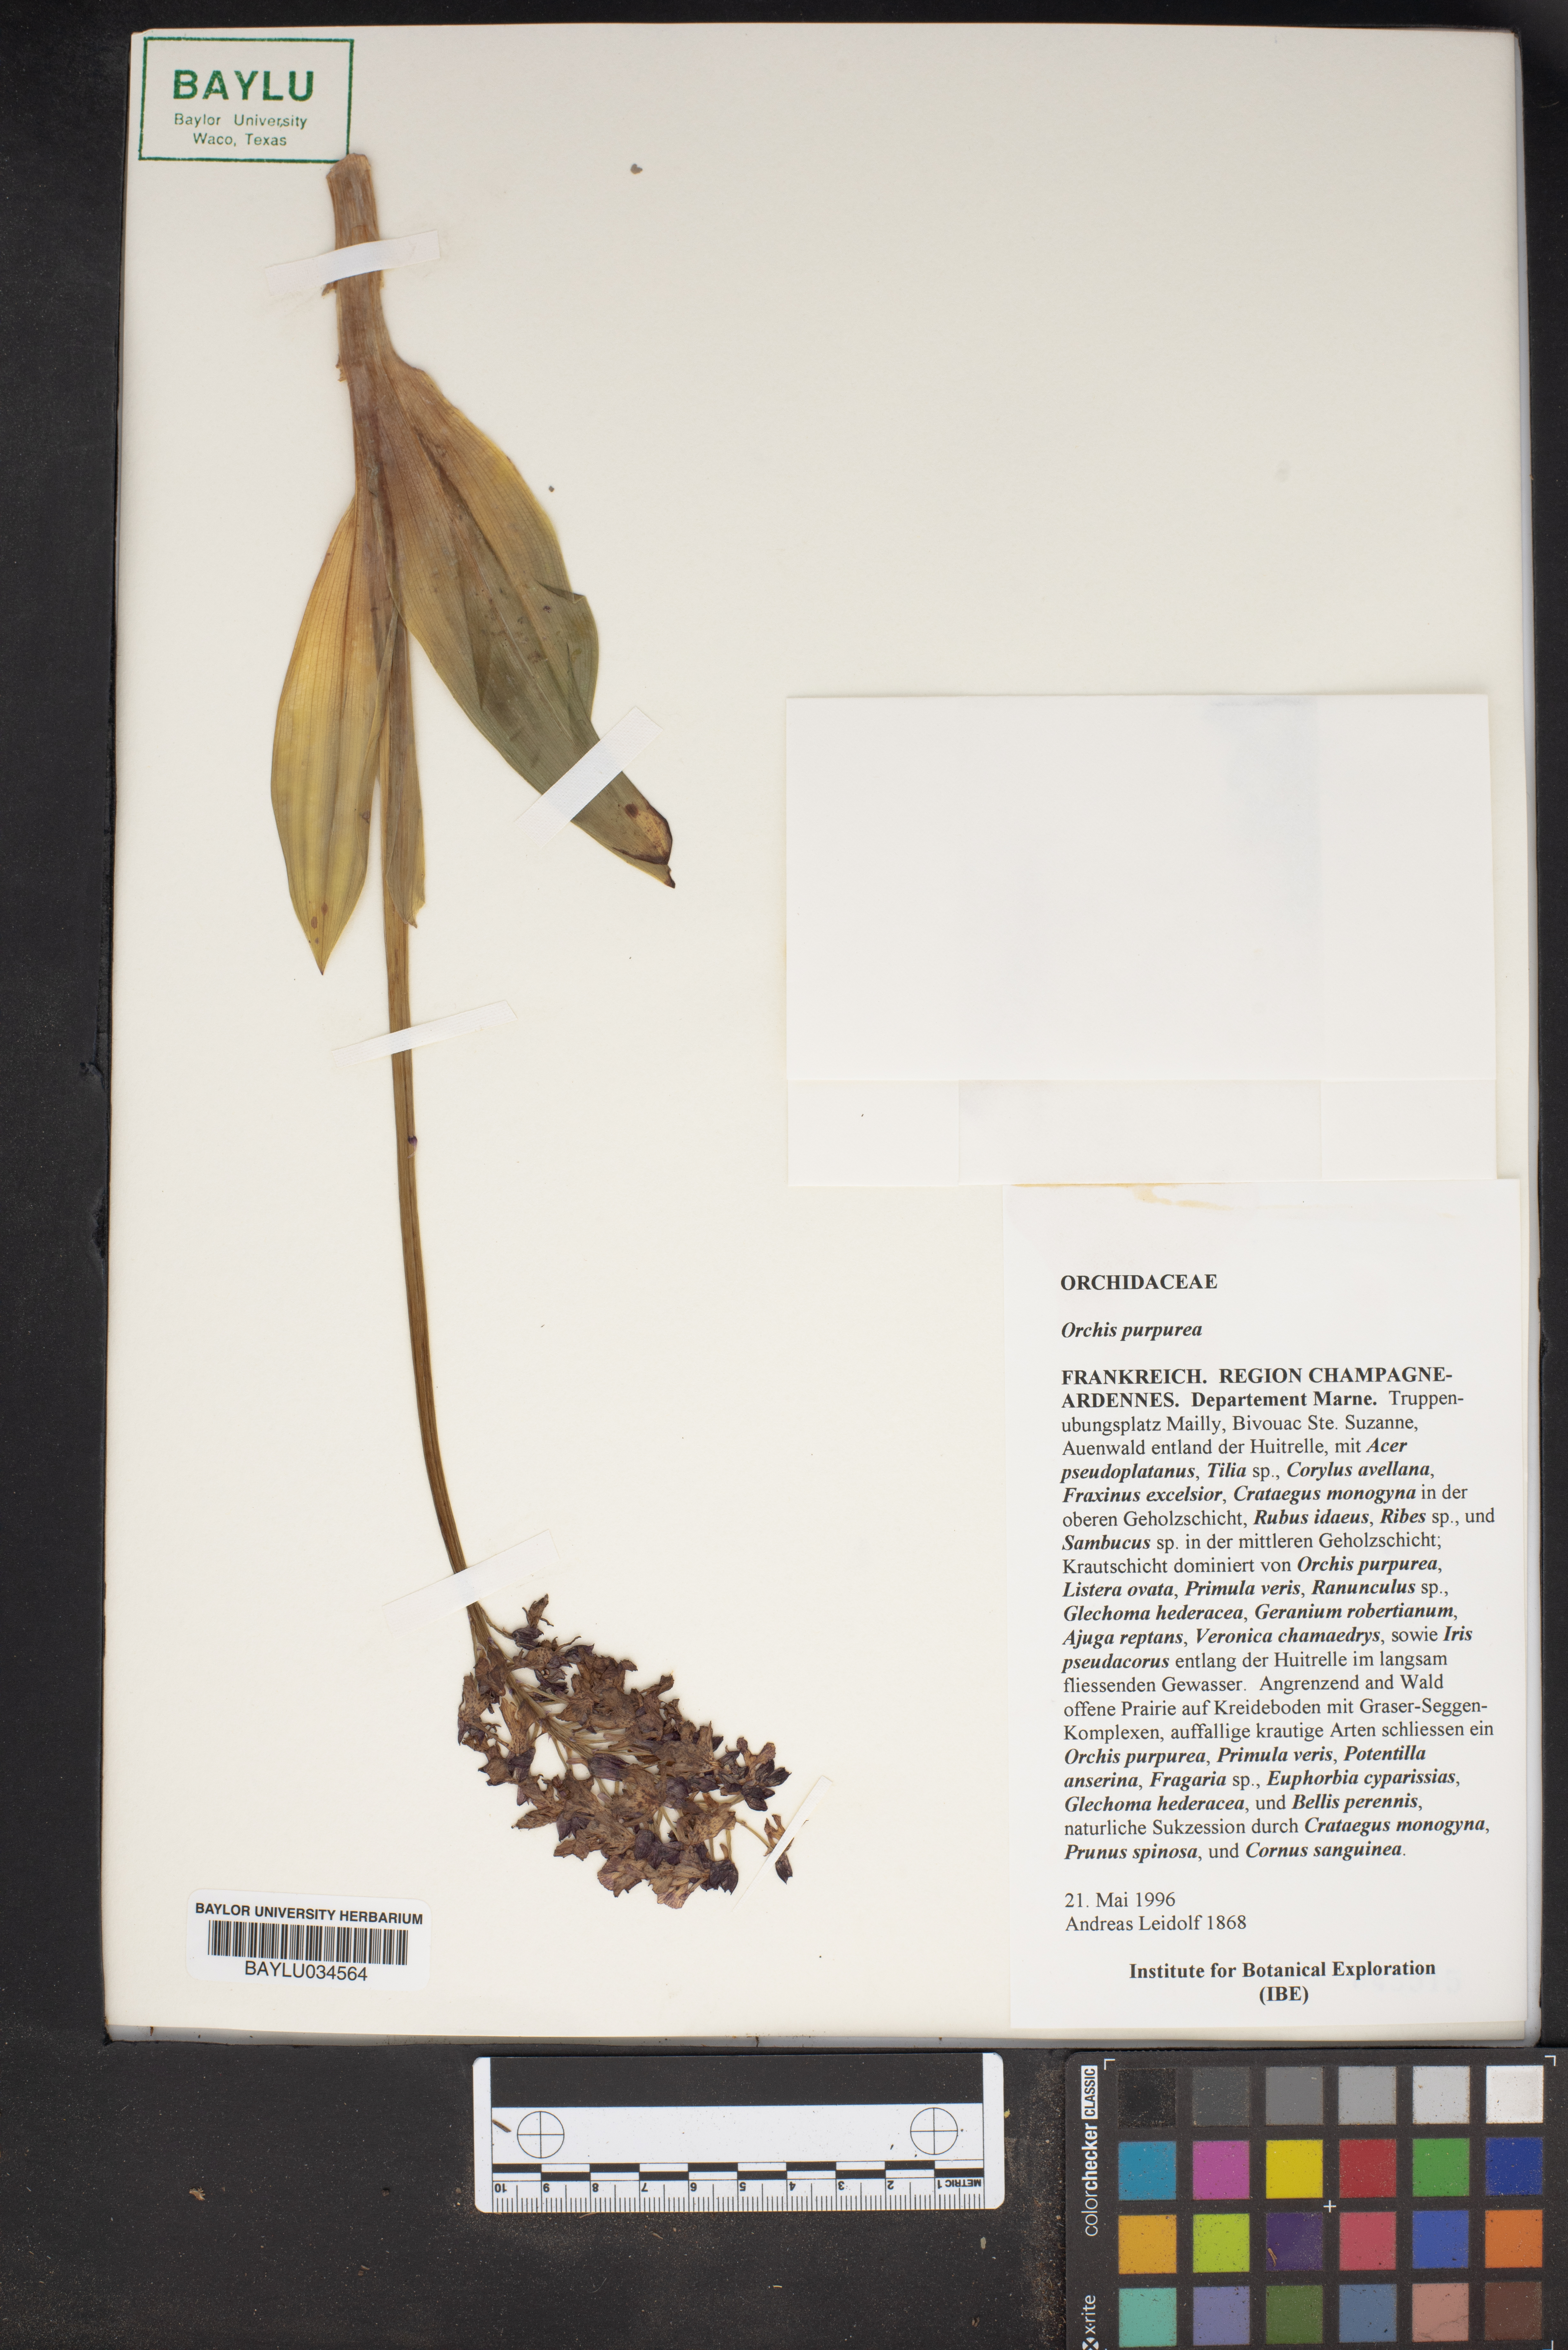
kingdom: Plantae
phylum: Tracheophyta
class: Liliopsida
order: Asparagales
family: Orchidaceae
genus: Orchis
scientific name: Orchis purpurea
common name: Lady orchid
